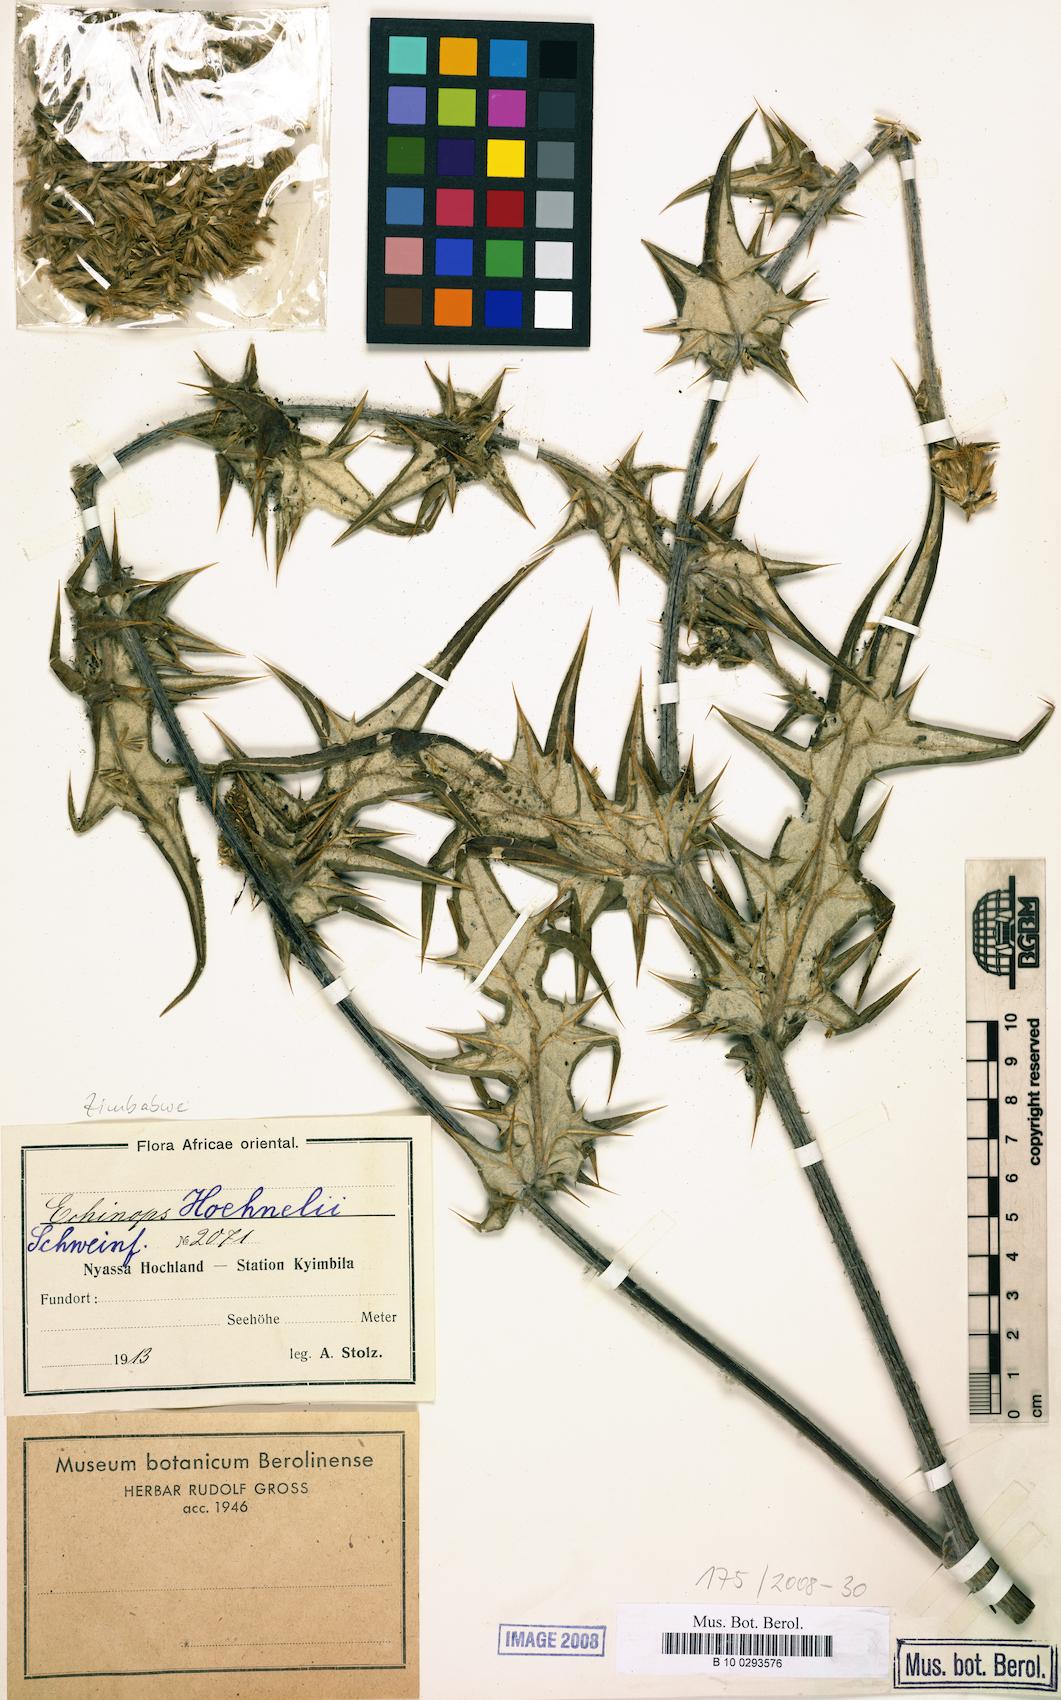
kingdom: Plantae
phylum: Tracheophyta
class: Magnoliopsida
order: Asterales
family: Asteraceae
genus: Echinops
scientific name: Echinops hoehnelii
